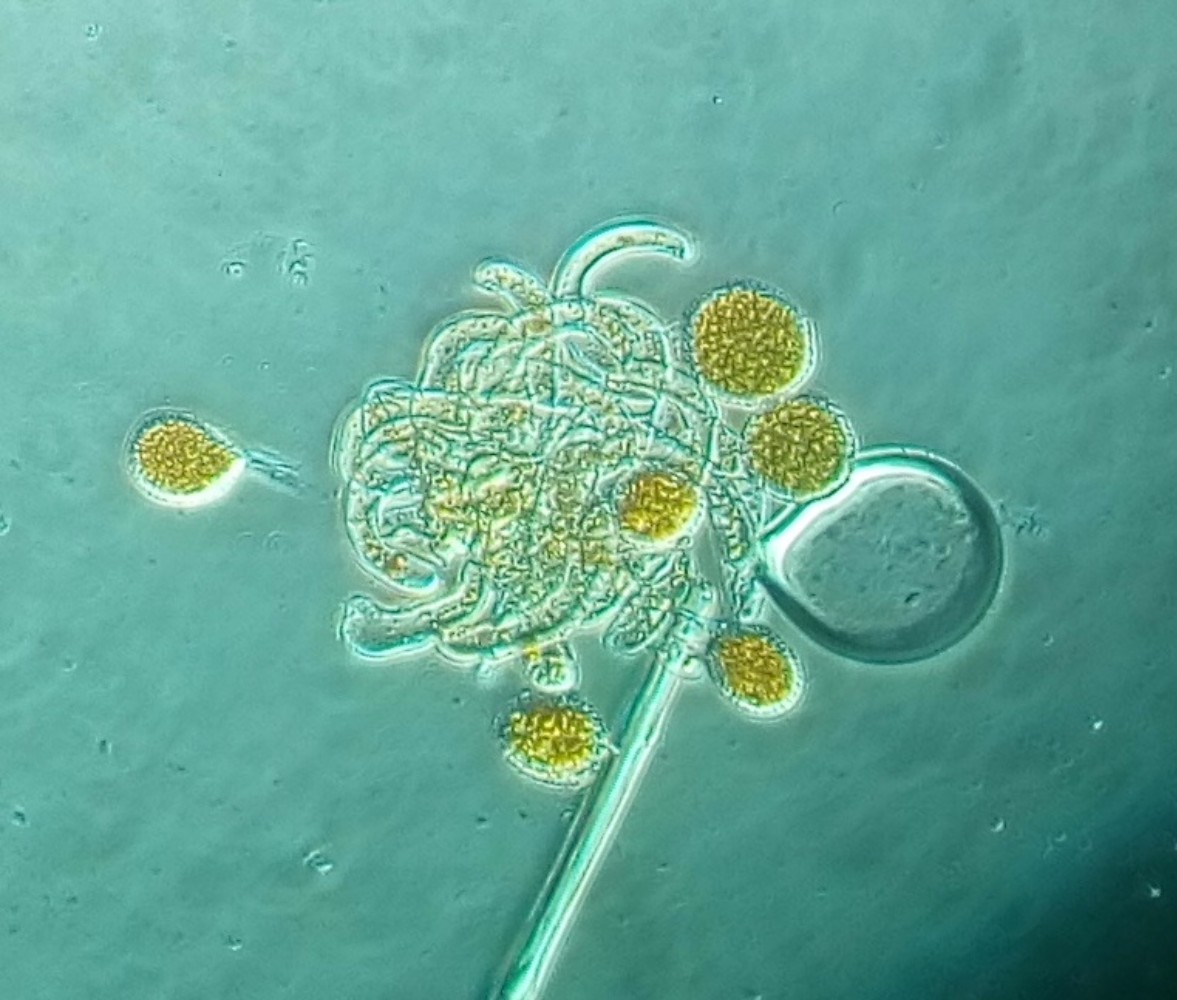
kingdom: Fungi
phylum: Basidiomycota
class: Pucciniomycetes
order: Pucciniales
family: Phragmidiaceae
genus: Phragmidium
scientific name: Phragmidium tuberculatum
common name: Rose rust
